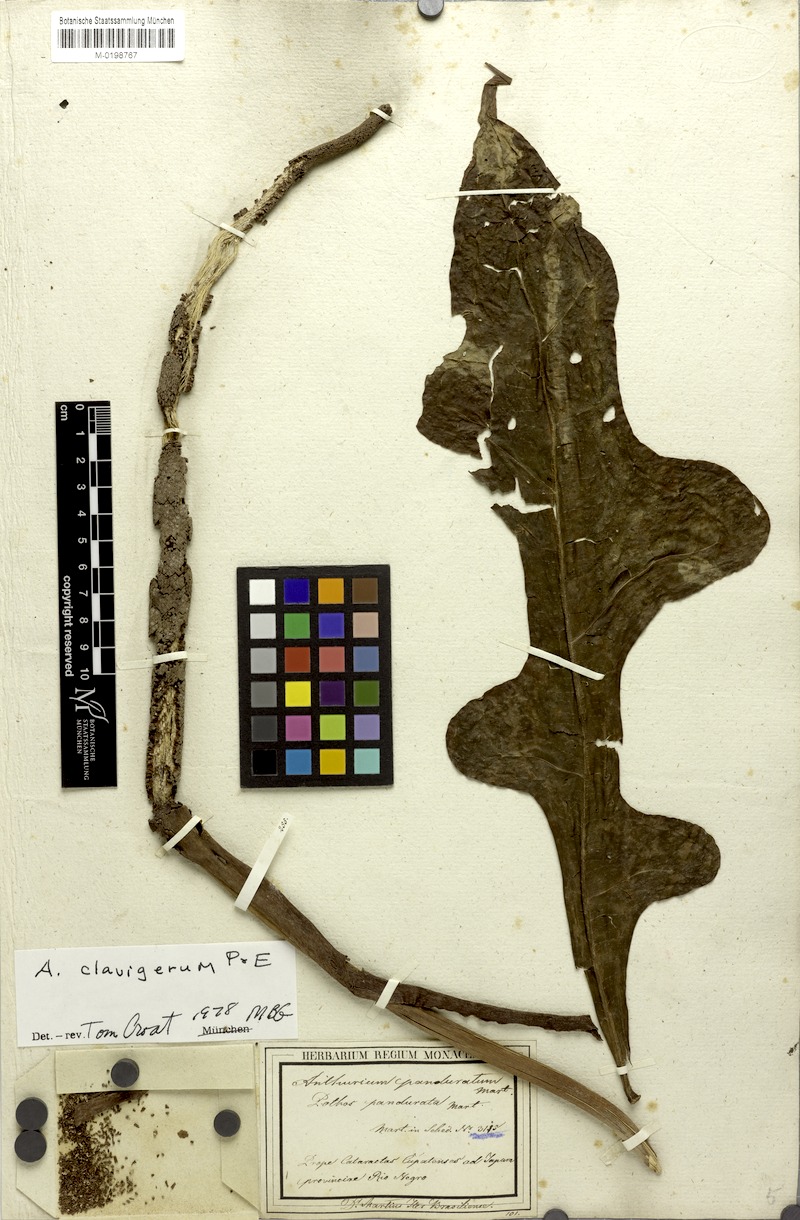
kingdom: Plantae
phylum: Tracheophyta
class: Liliopsida
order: Alismatales
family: Araceae
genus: Anthurium
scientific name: Anthurium clavigerum
